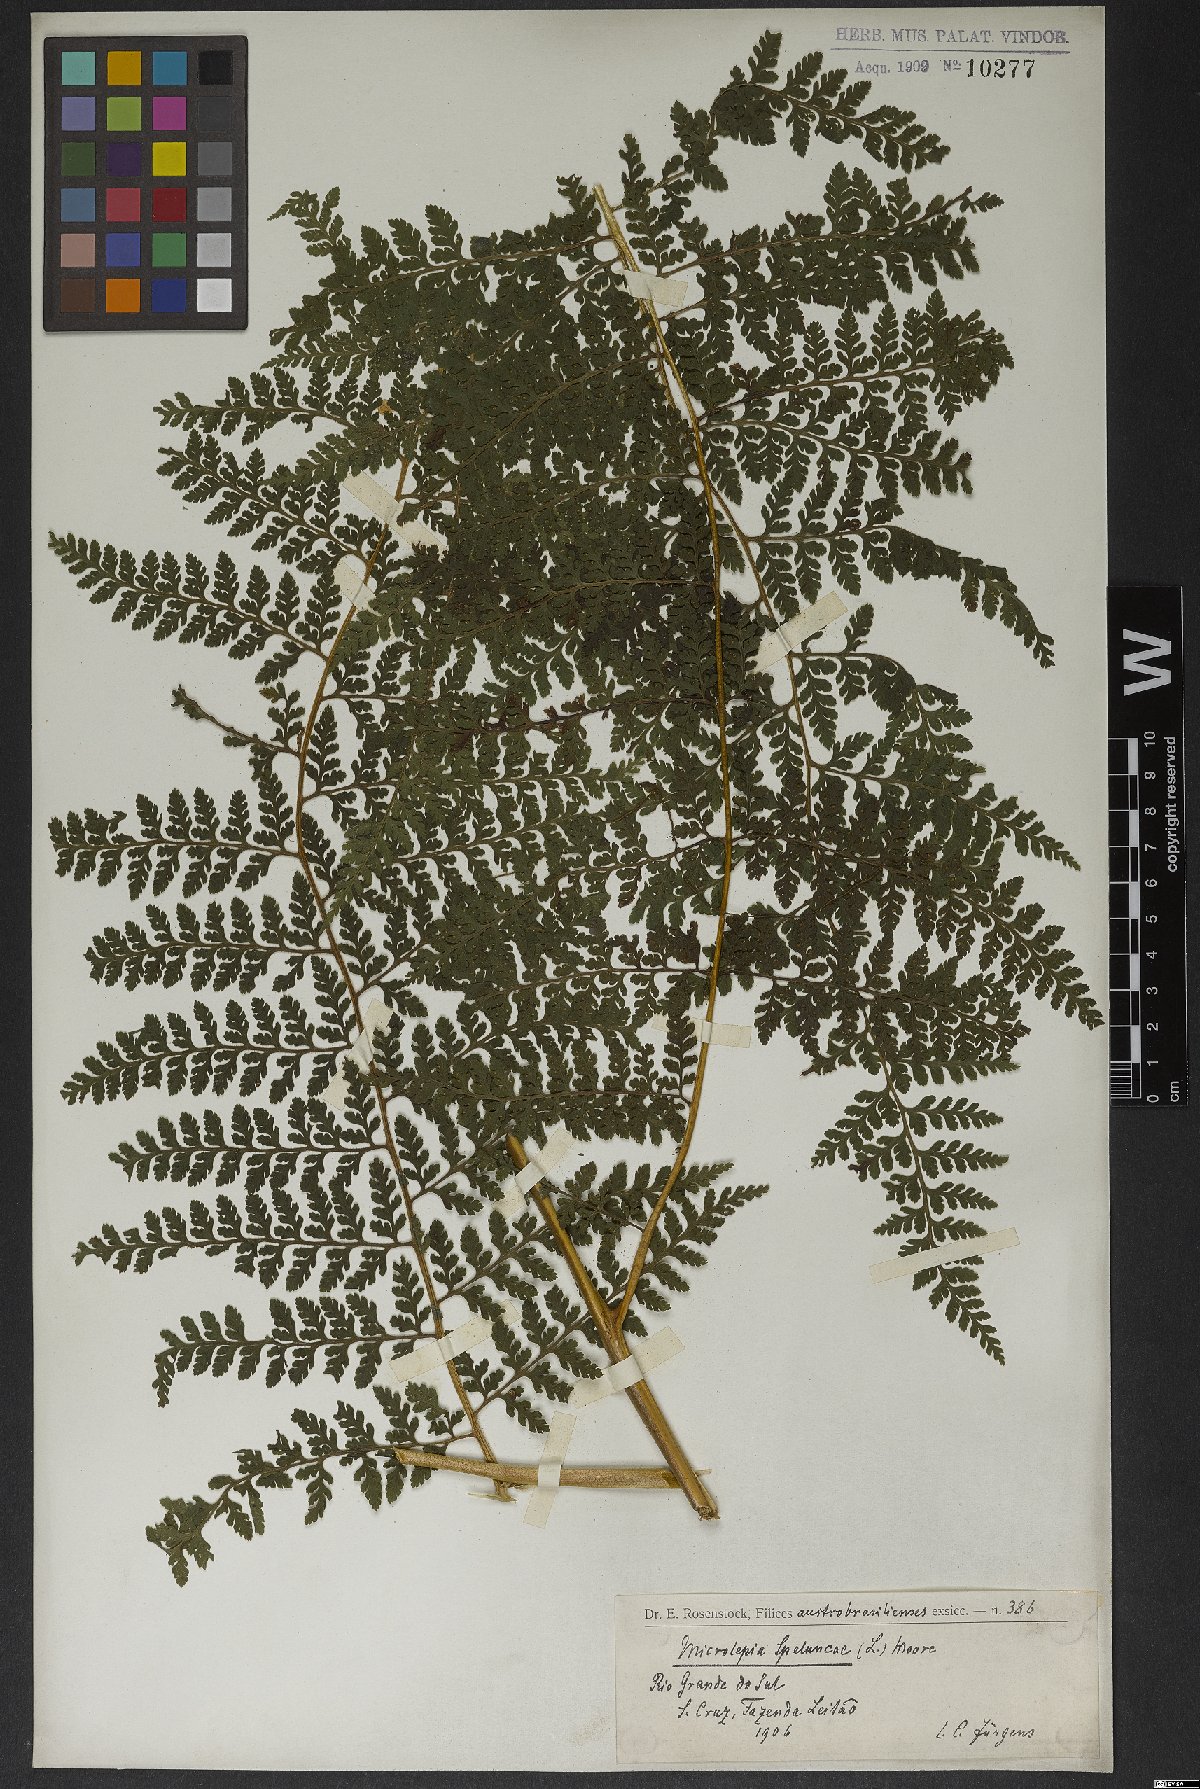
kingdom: Plantae
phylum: Tracheophyta
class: Polypodiopsida
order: Polypodiales
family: Dennstaedtiaceae
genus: Microlepia
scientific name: Microlepia speluncae
